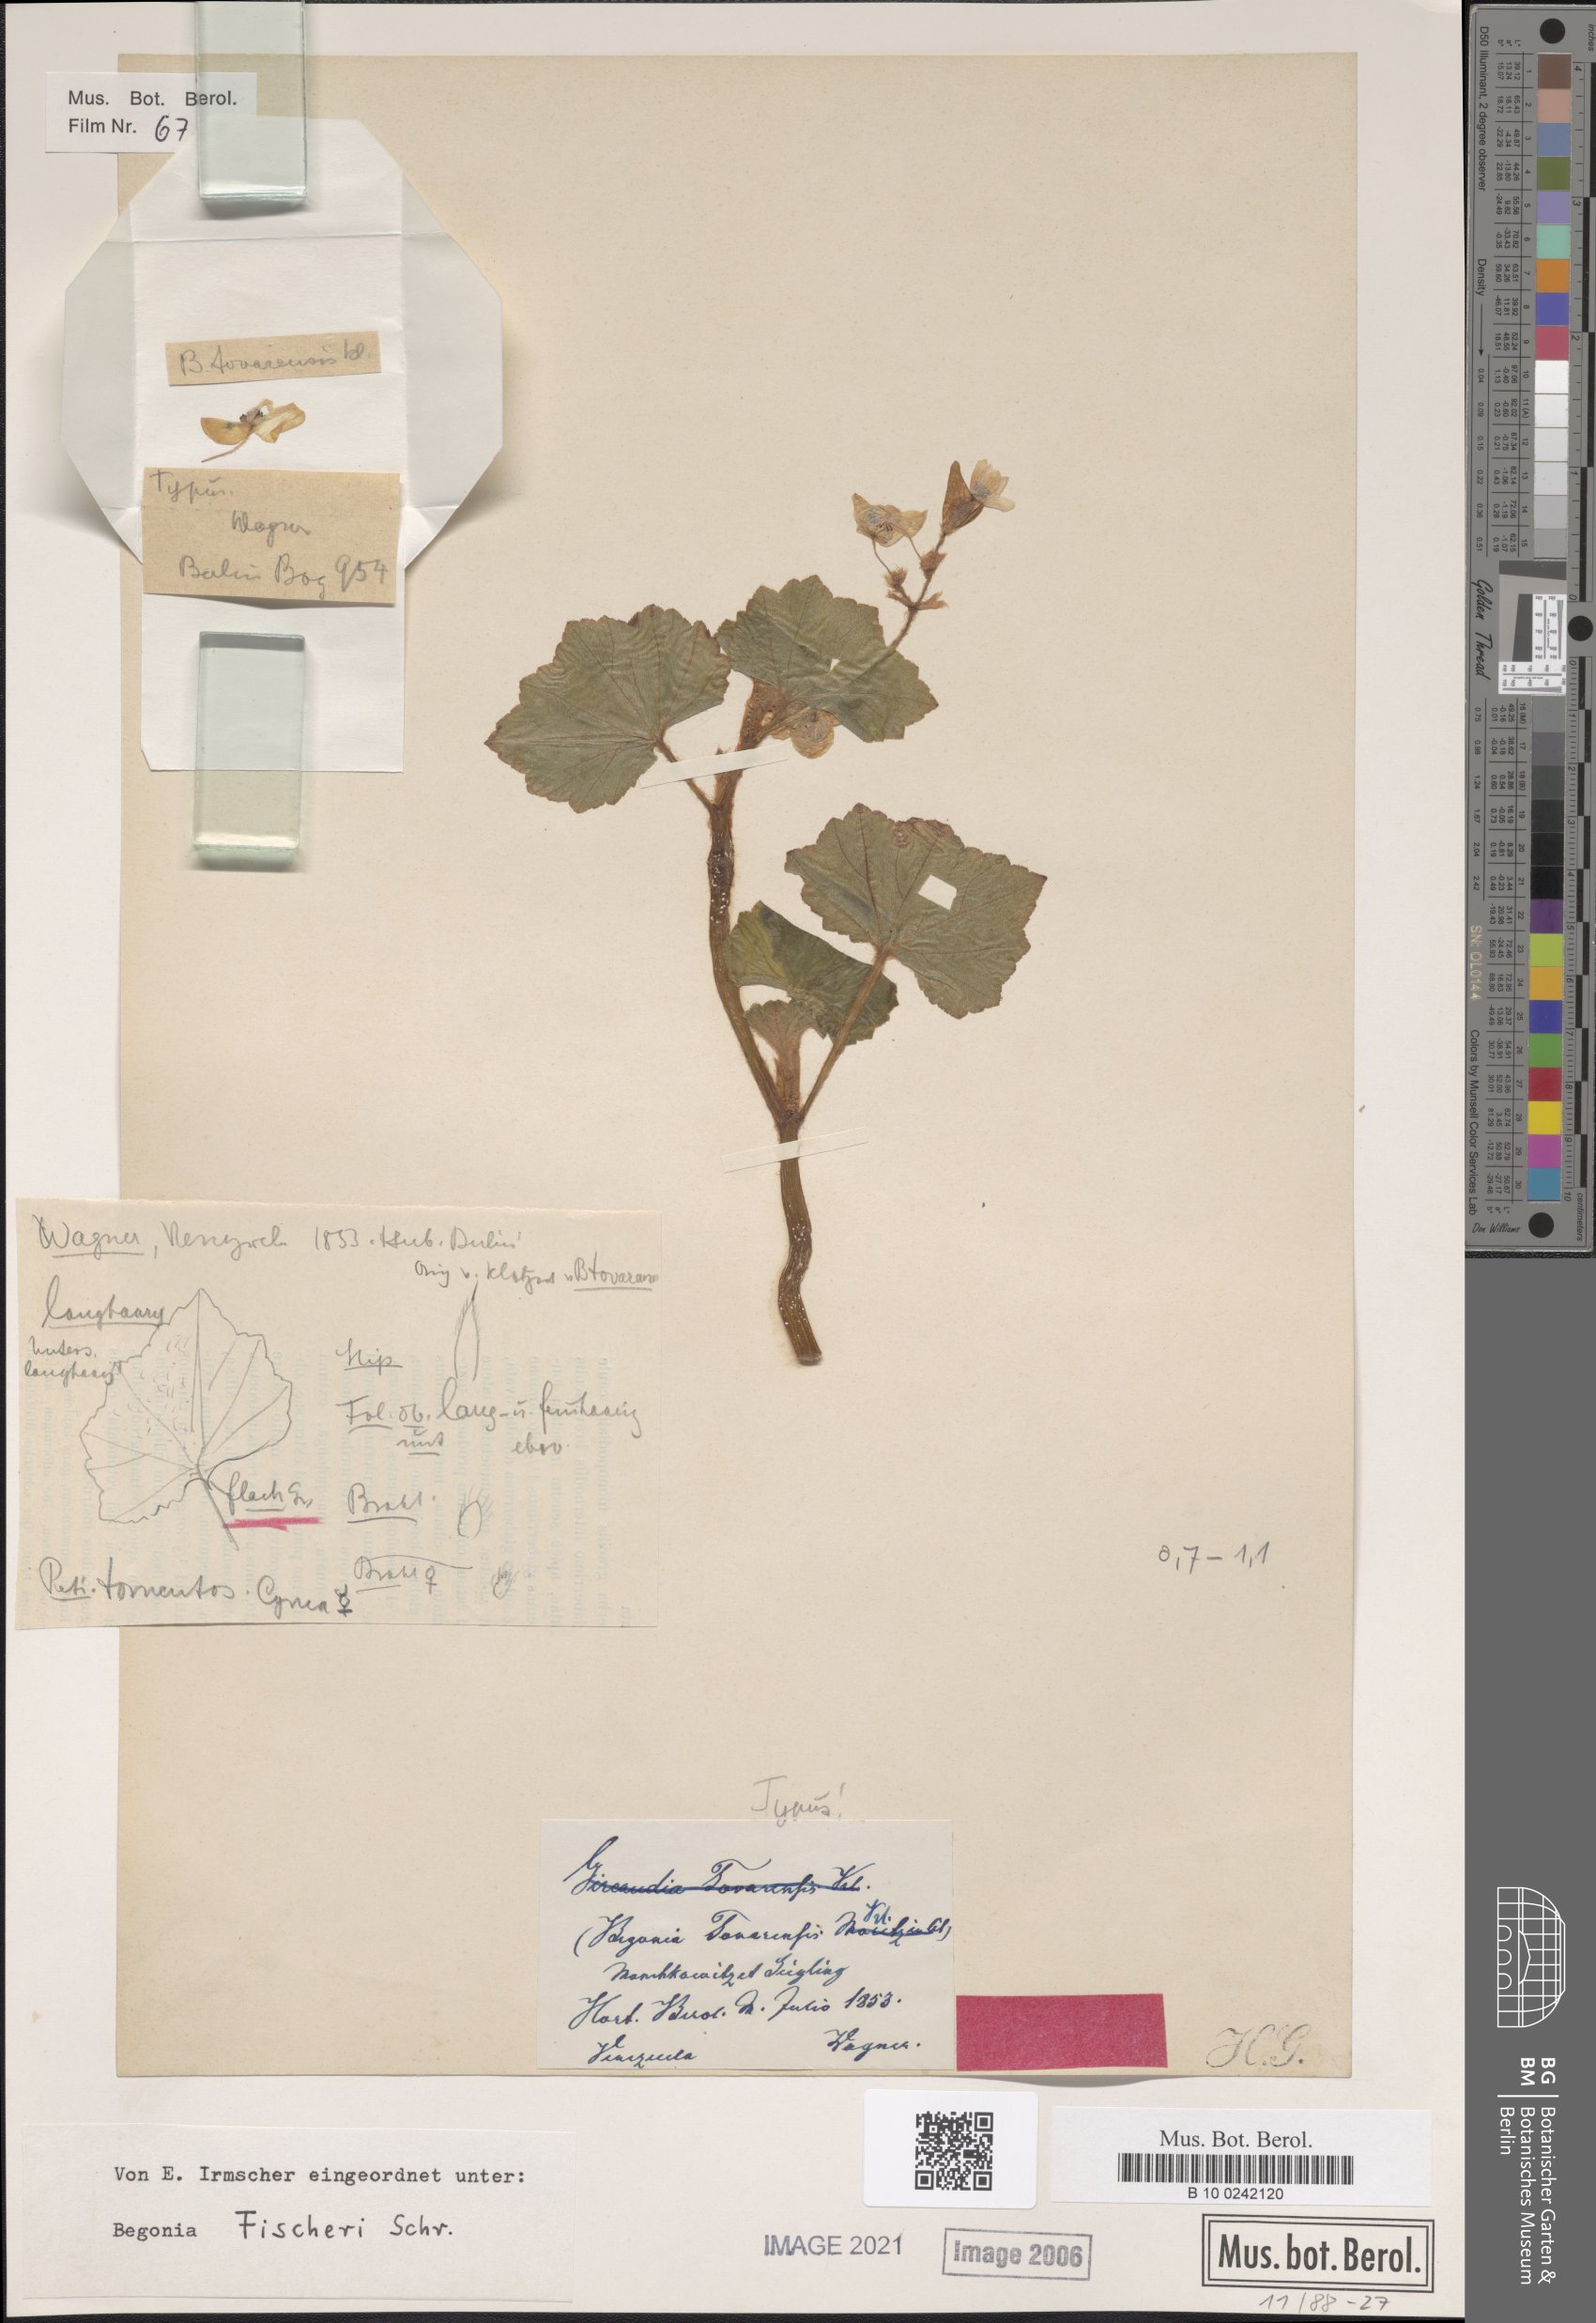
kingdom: Plantae
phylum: Tracheophyta
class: Magnoliopsida
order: Cucurbitales
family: Begoniaceae
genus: Begonia
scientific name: Begonia fischeri
